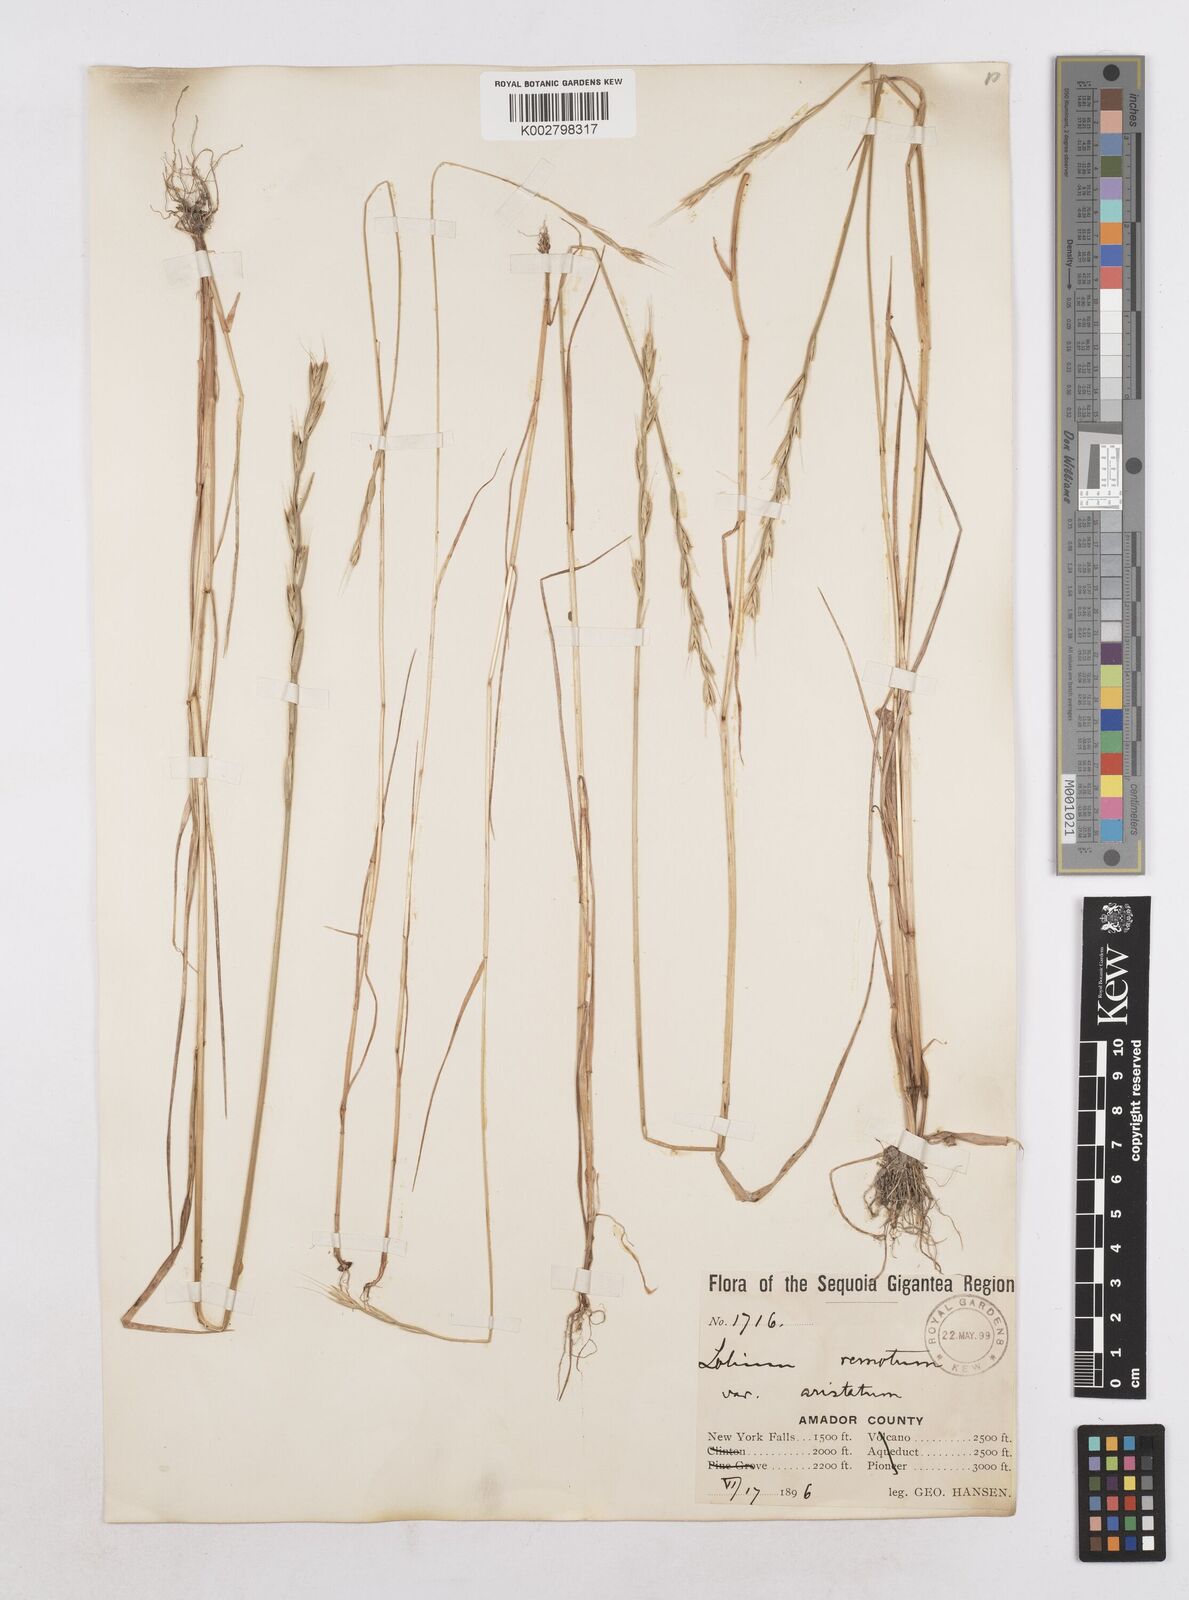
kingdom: Plantae
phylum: Tracheophyta
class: Liliopsida
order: Poales
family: Poaceae
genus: Lolium
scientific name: Lolium
